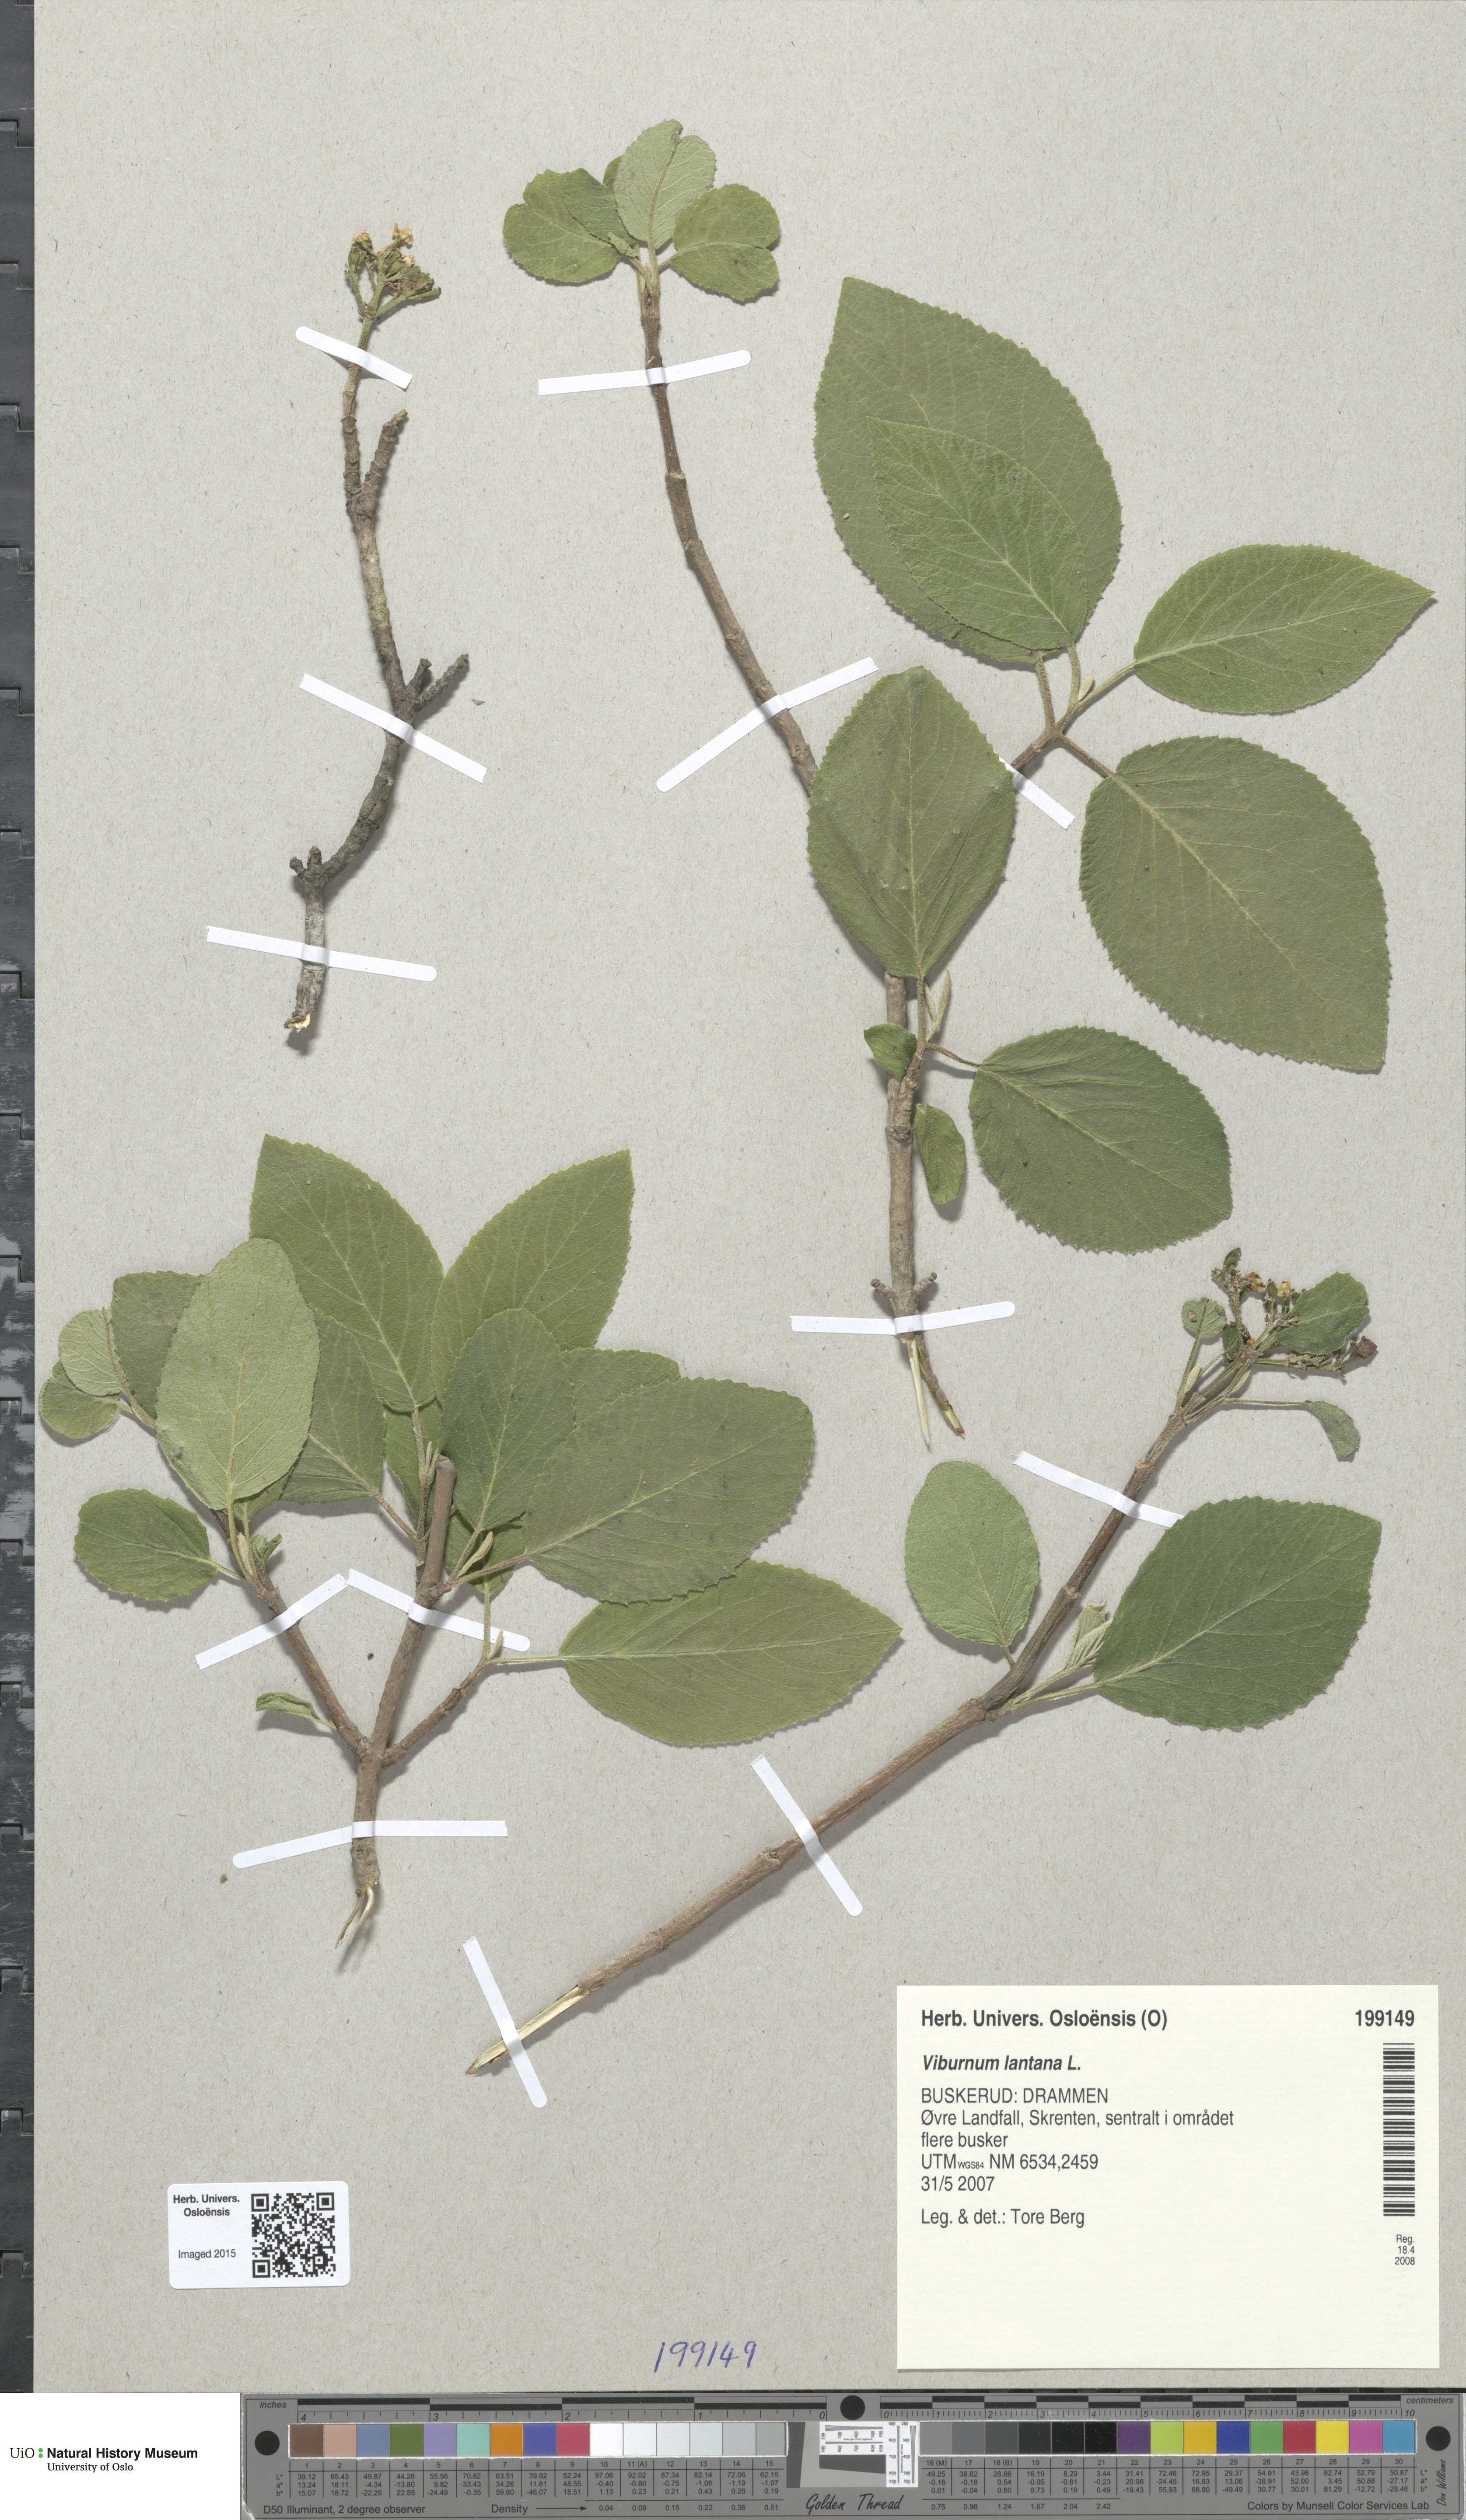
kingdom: Plantae
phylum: Tracheophyta
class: Magnoliopsida
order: Dipsacales
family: Viburnaceae
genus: Viburnum
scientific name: Viburnum lantana
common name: Wayfaring tree
